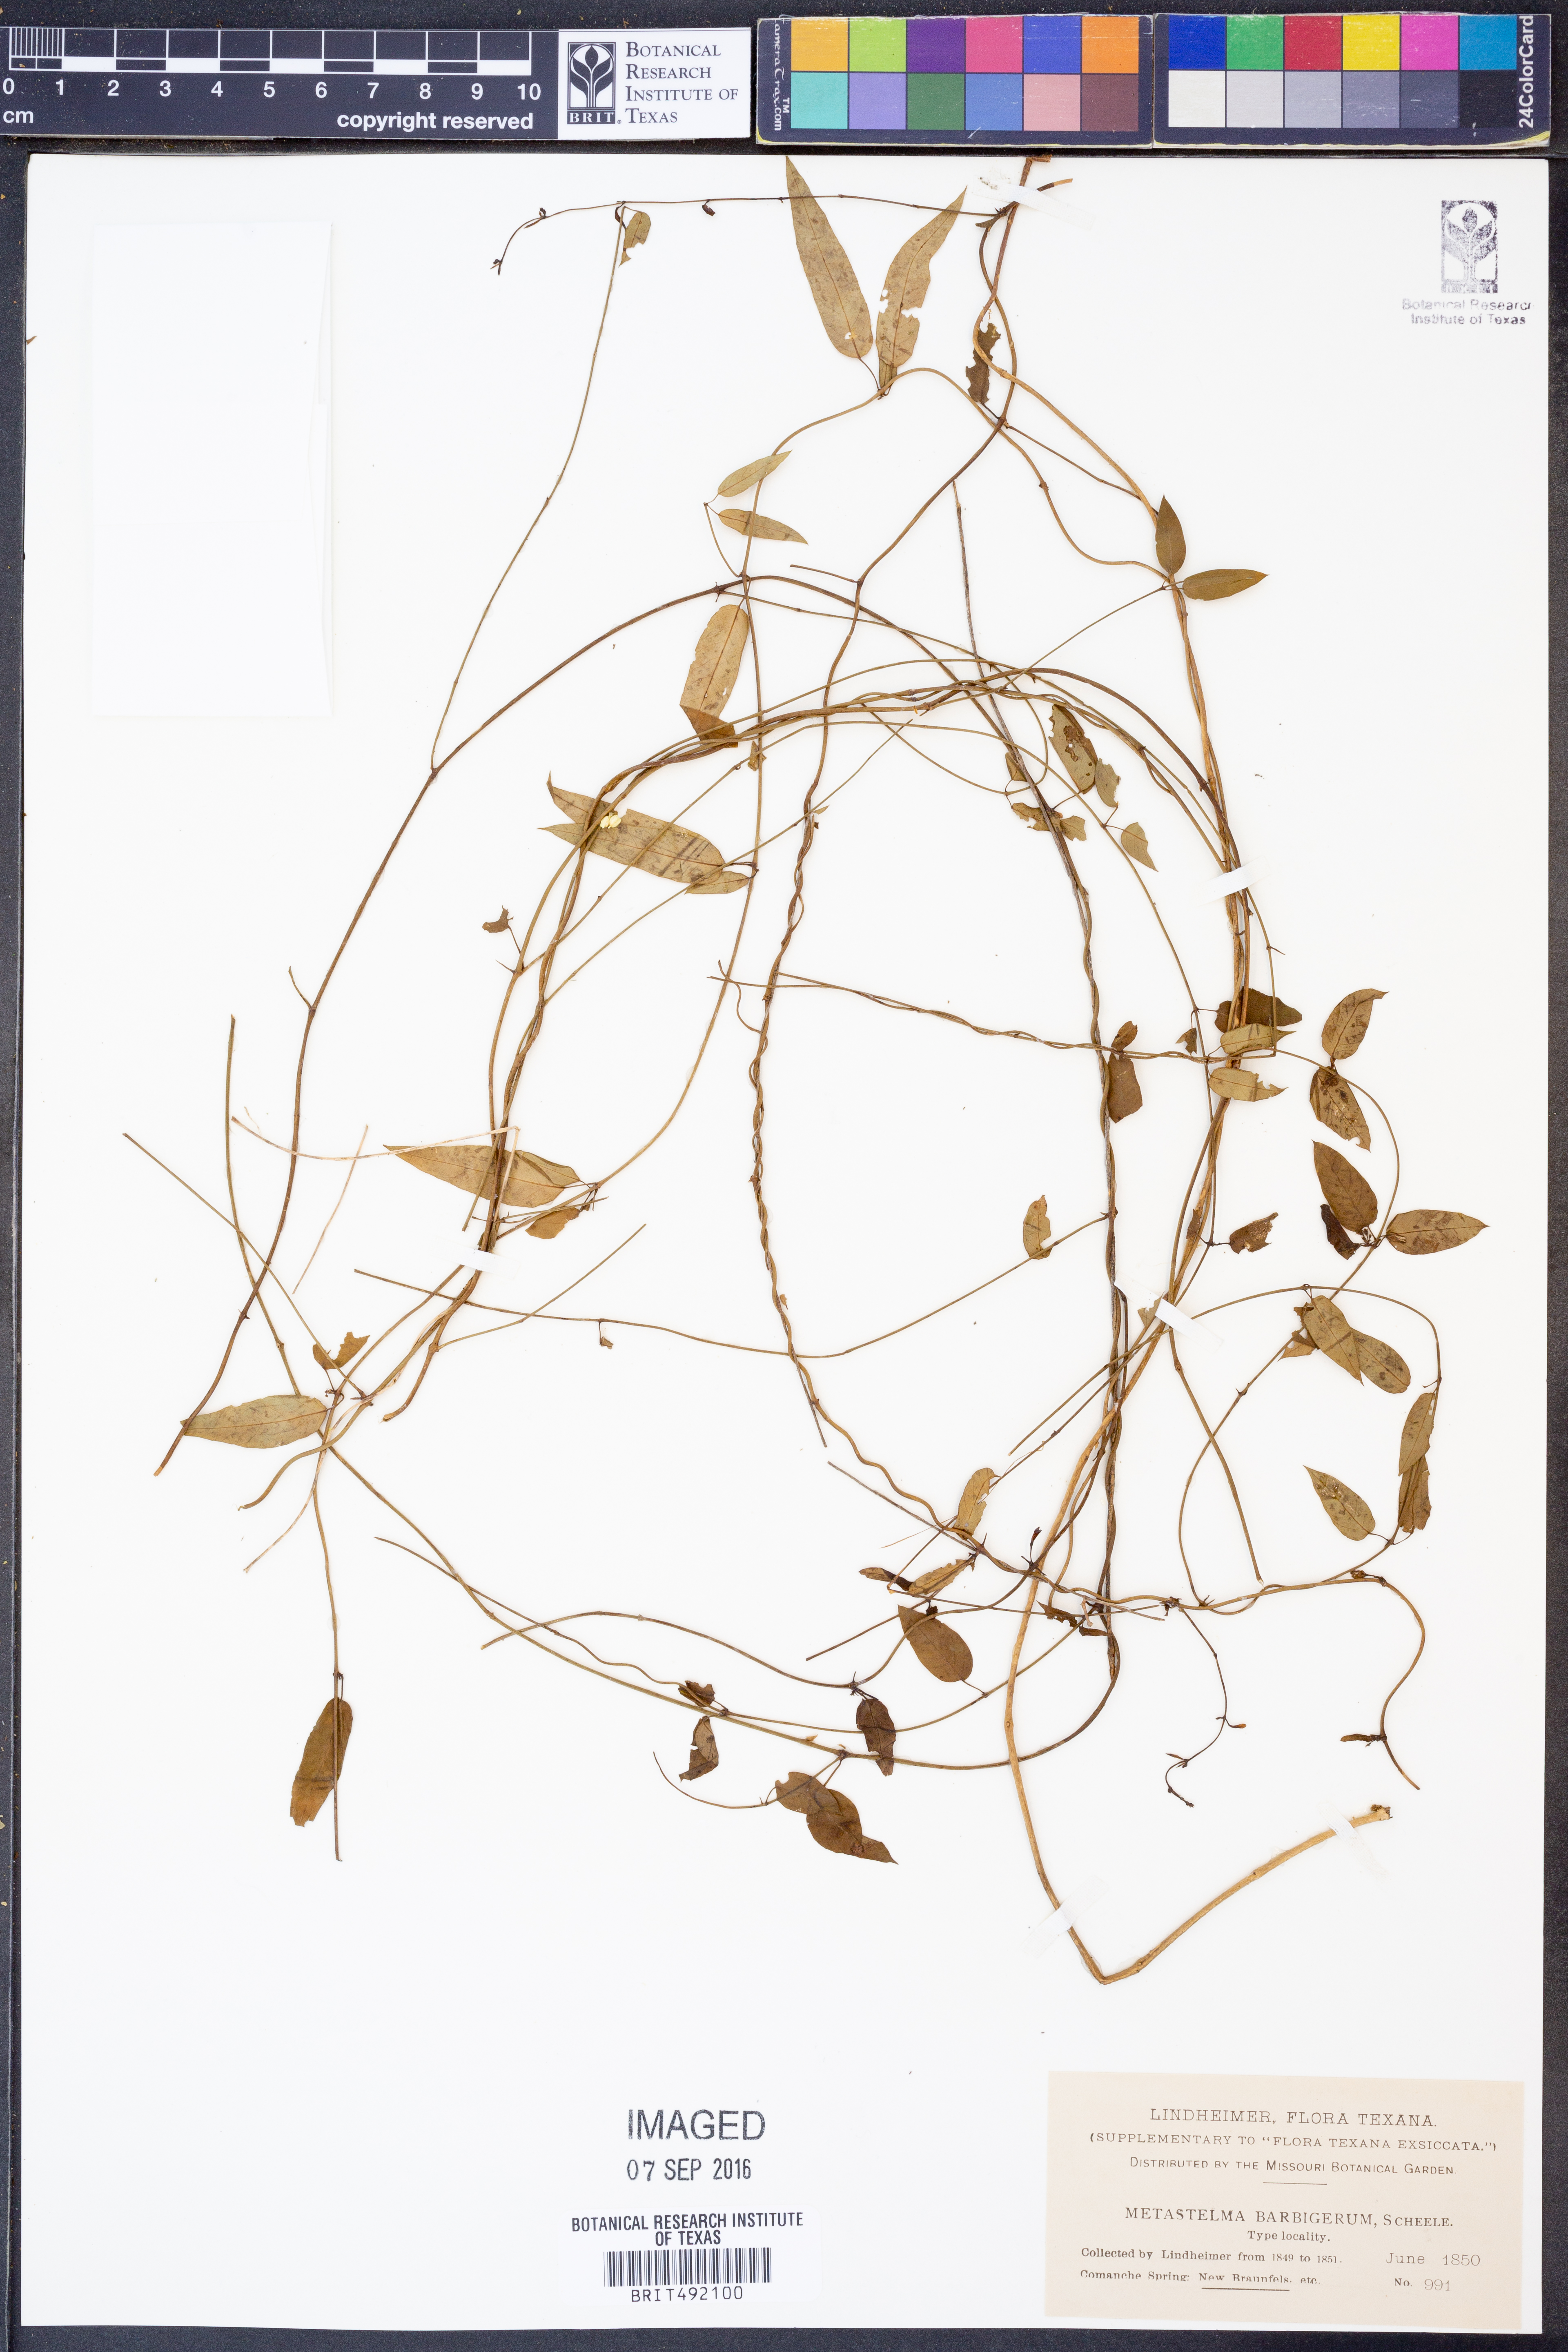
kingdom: Plantae
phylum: Tracheophyta
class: Magnoliopsida
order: Gentianales
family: Apocynaceae
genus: Metastelma
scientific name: Metastelma barbigerum
